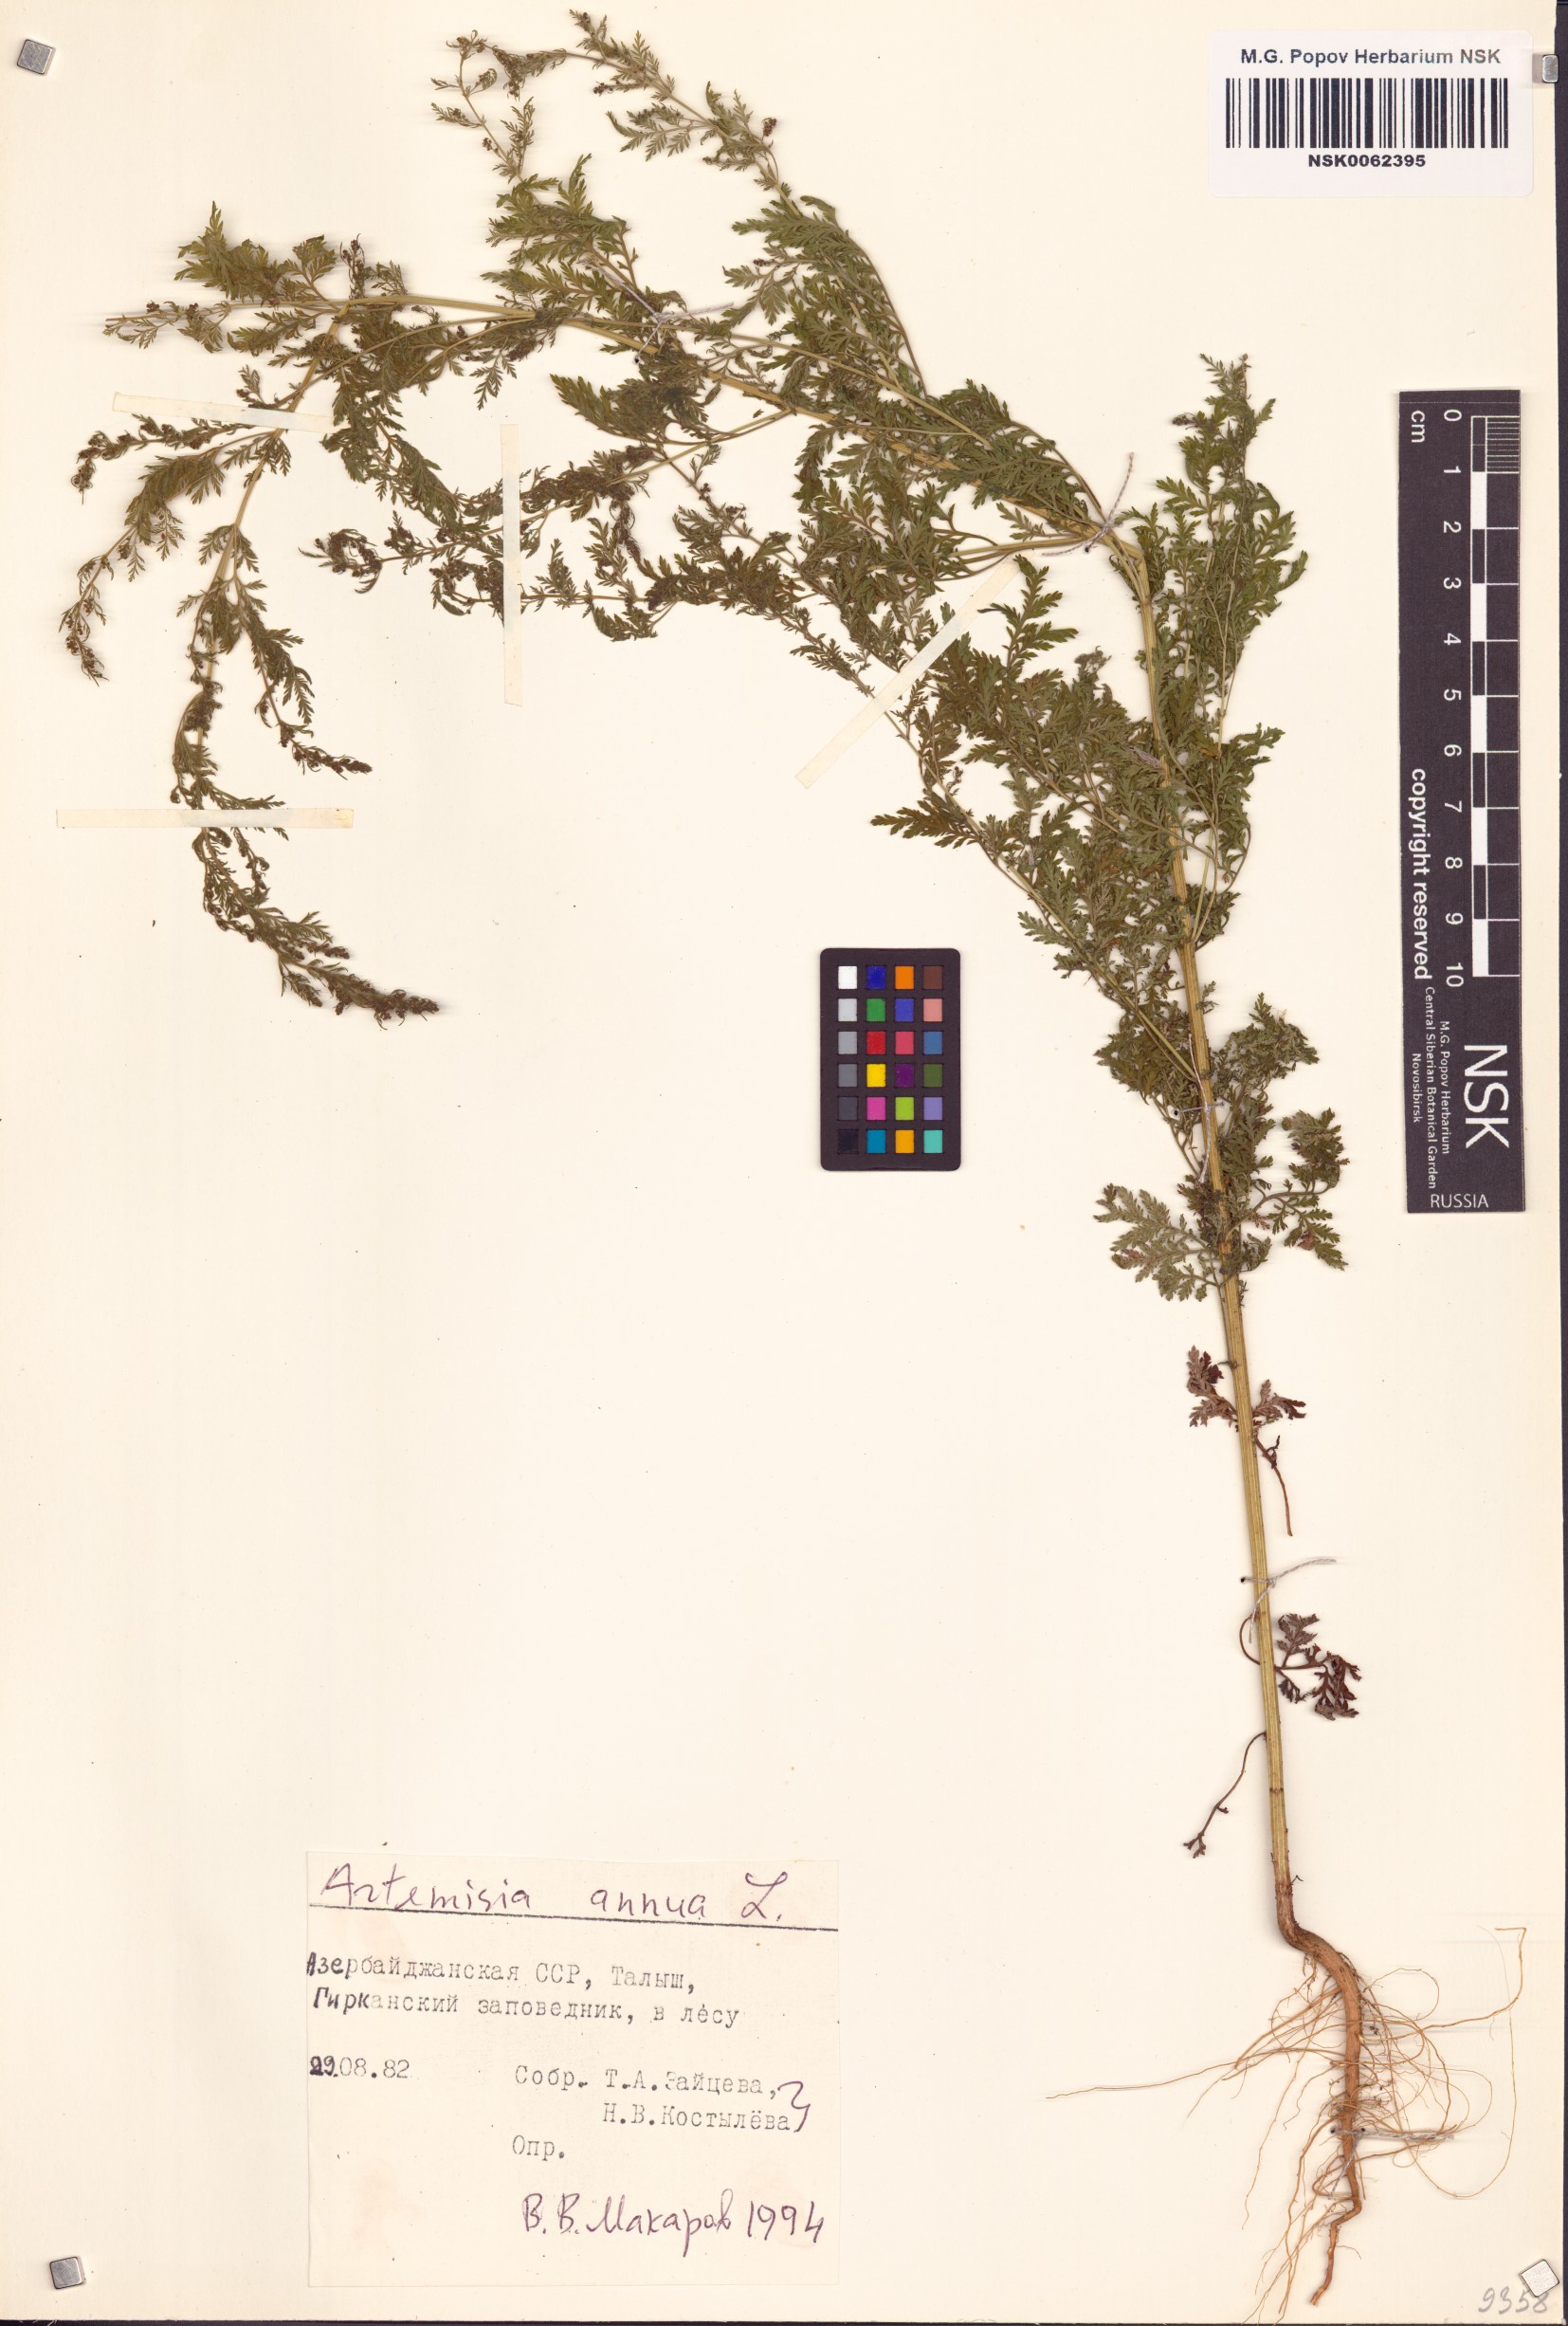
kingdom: Plantae
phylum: Tracheophyta
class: Magnoliopsida
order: Asterales
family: Asteraceae
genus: Artemisia
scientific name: Artemisia annua
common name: Sweet sagewort
